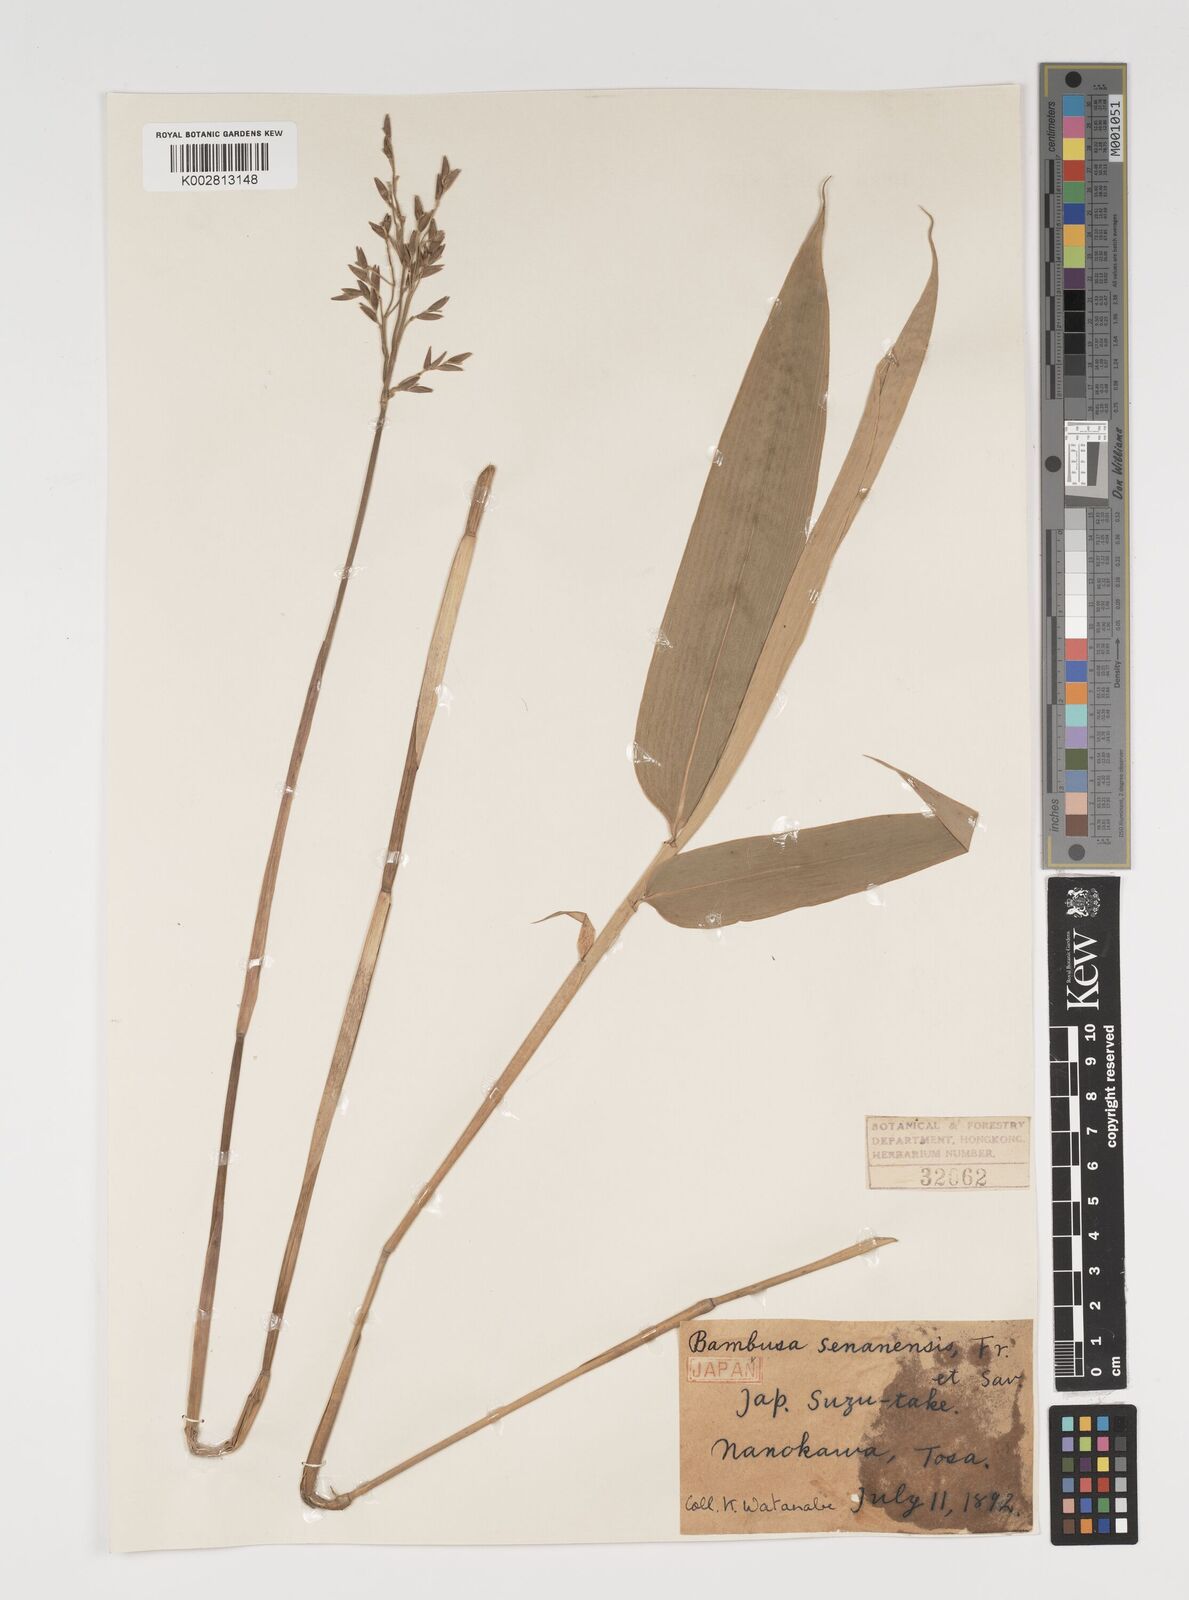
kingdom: Plantae
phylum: Tracheophyta
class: Liliopsida
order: Poales
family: Poaceae
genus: Sasa
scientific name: Sasa palmata
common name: Broad-leaved bamboo
